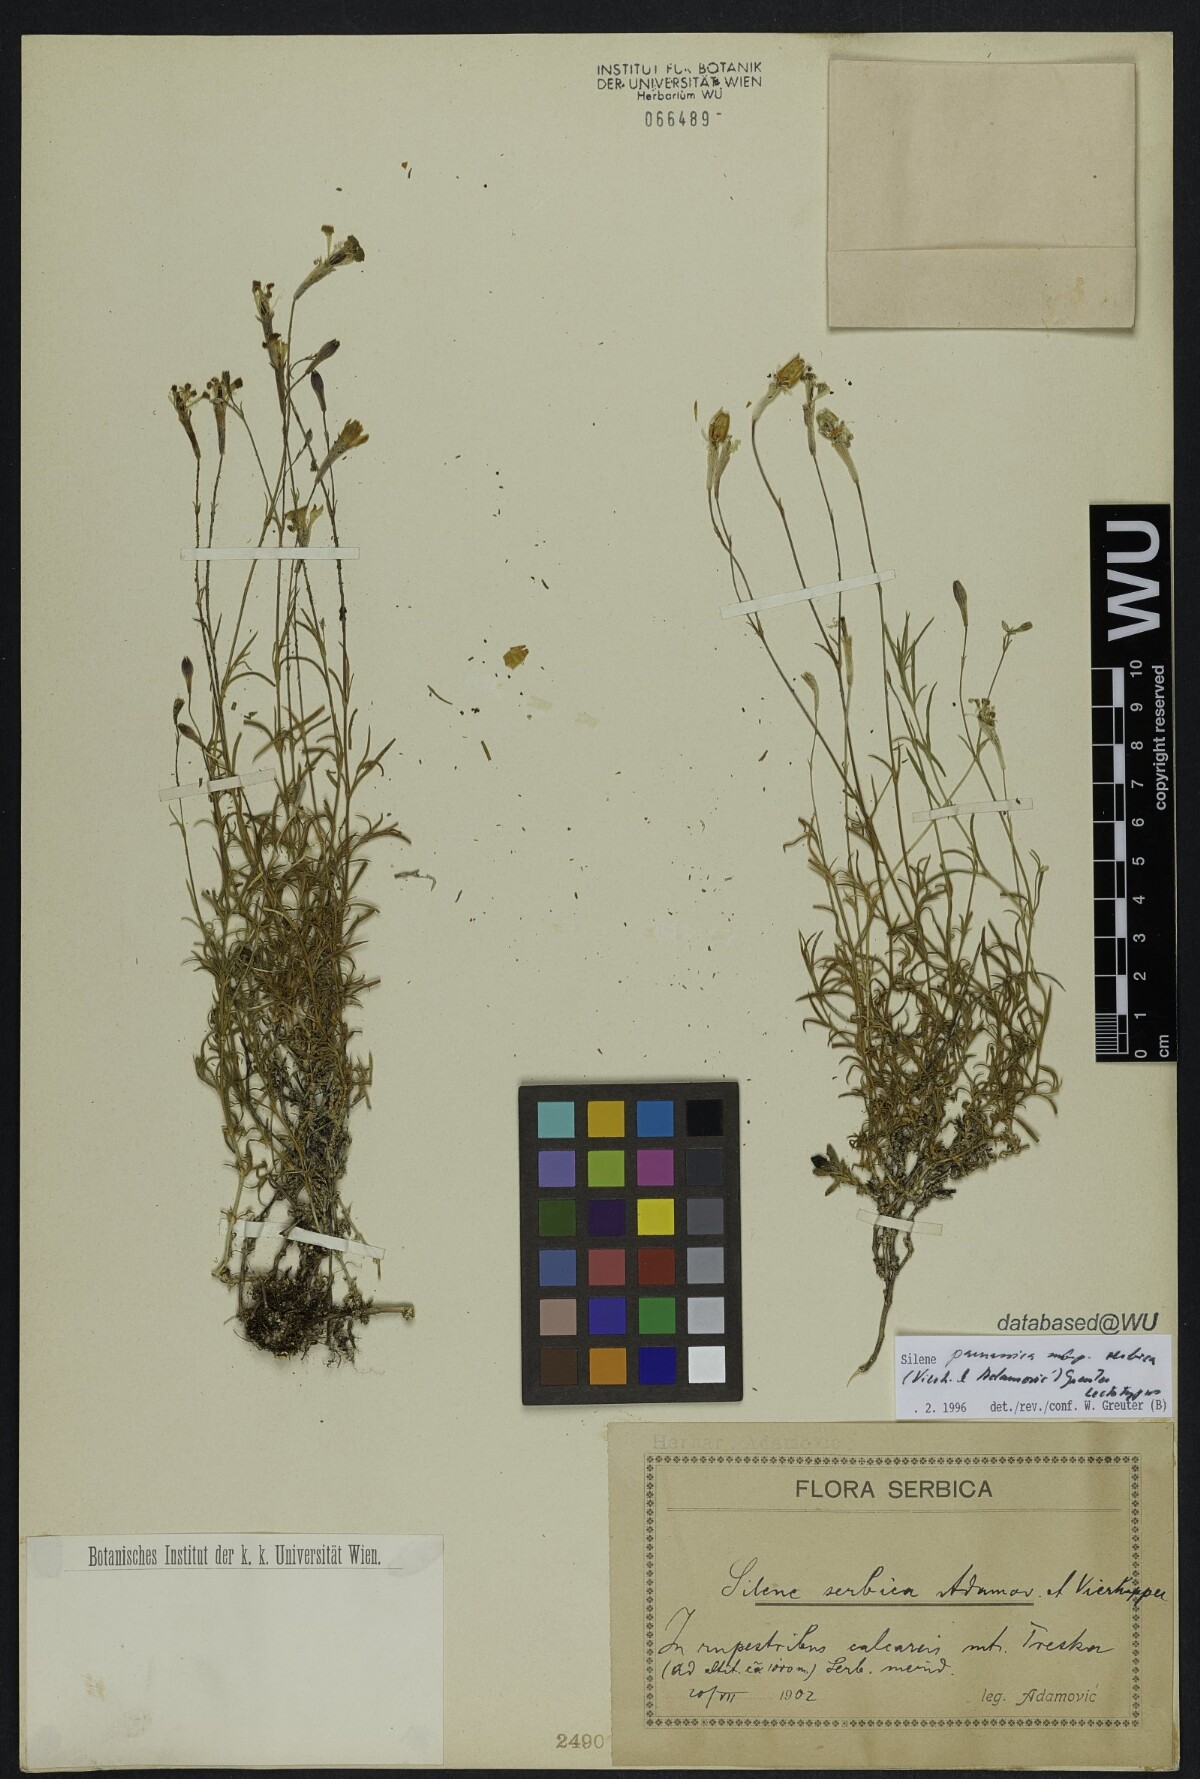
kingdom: Plantae
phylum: Tracheophyta
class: Magnoliopsida
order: Caryophyllales
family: Caryophyllaceae
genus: Silene
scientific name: Silene parnassica
